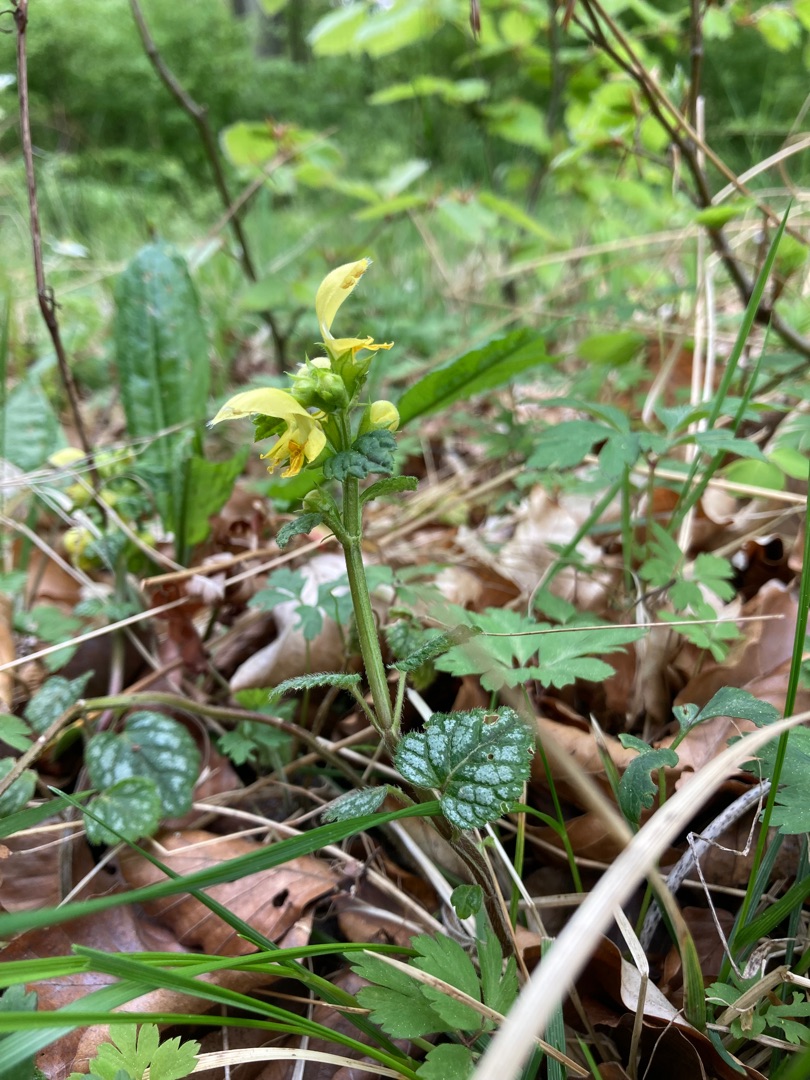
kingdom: Plantae
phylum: Tracheophyta
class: Magnoliopsida
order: Lamiales
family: Lamiaceae
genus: Lamium
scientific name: Lamium galeobdolon
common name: Guldnælde
